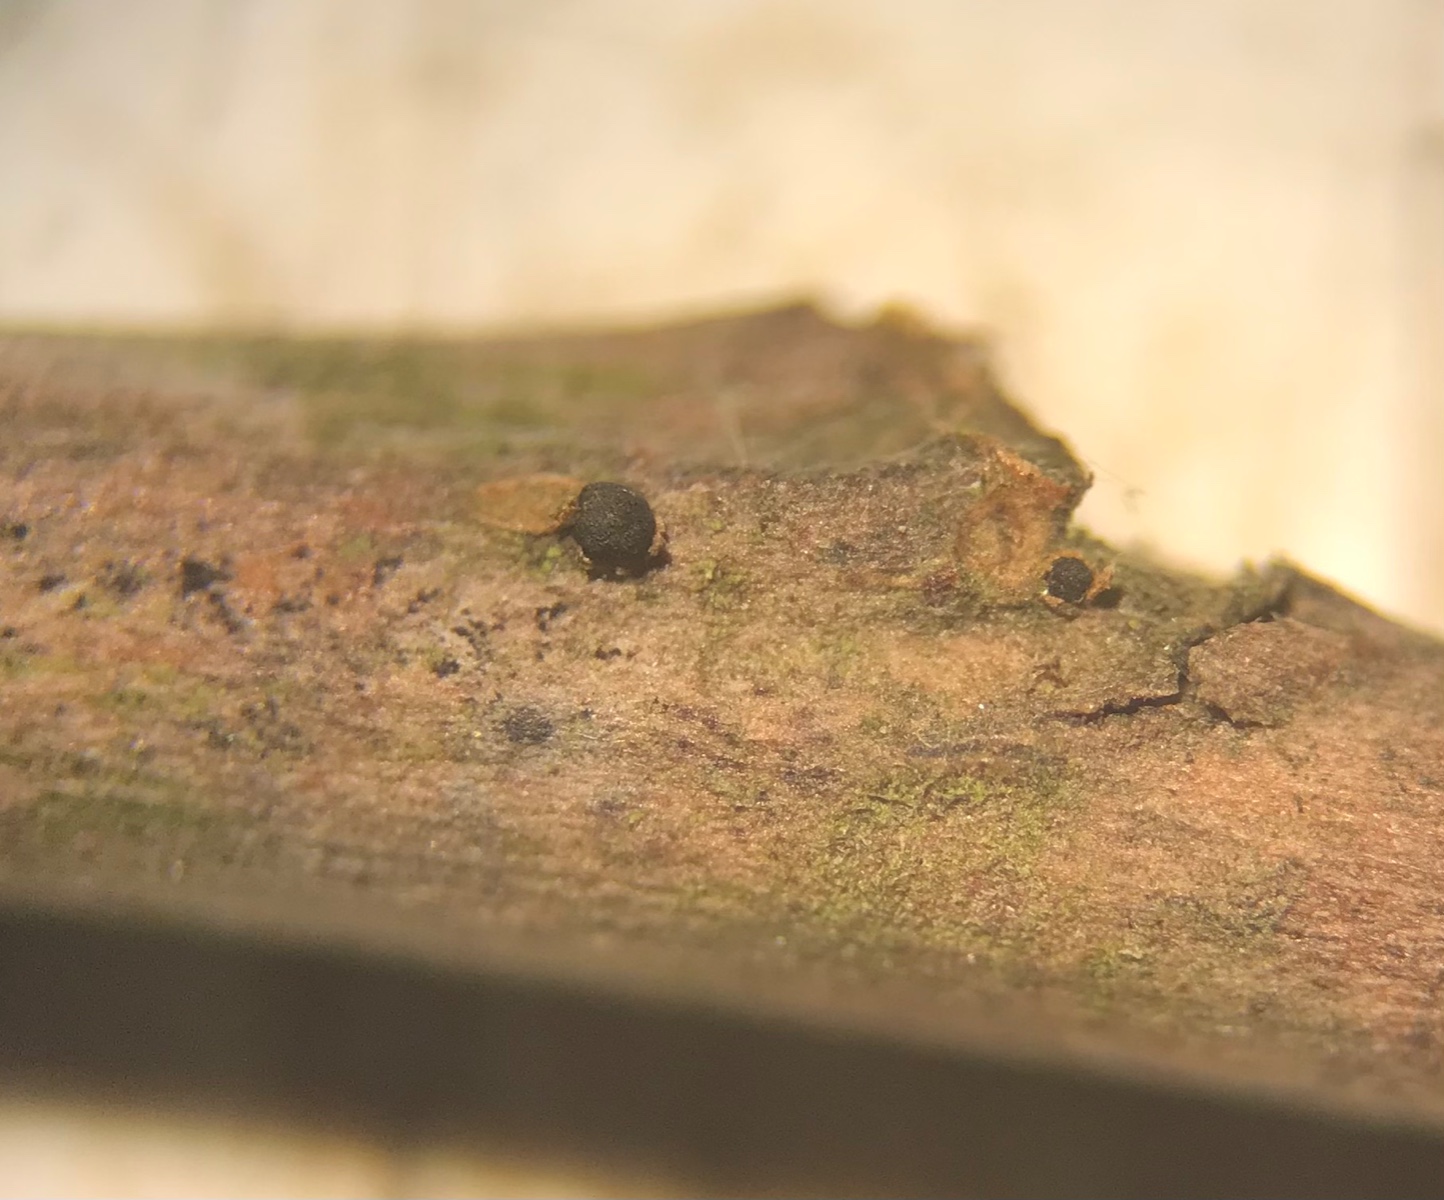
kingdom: Fungi
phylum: Ascomycota
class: Leotiomycetes
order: Helotiales
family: Godroniaceae
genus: Godronia
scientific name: Godronia fuliginosa
